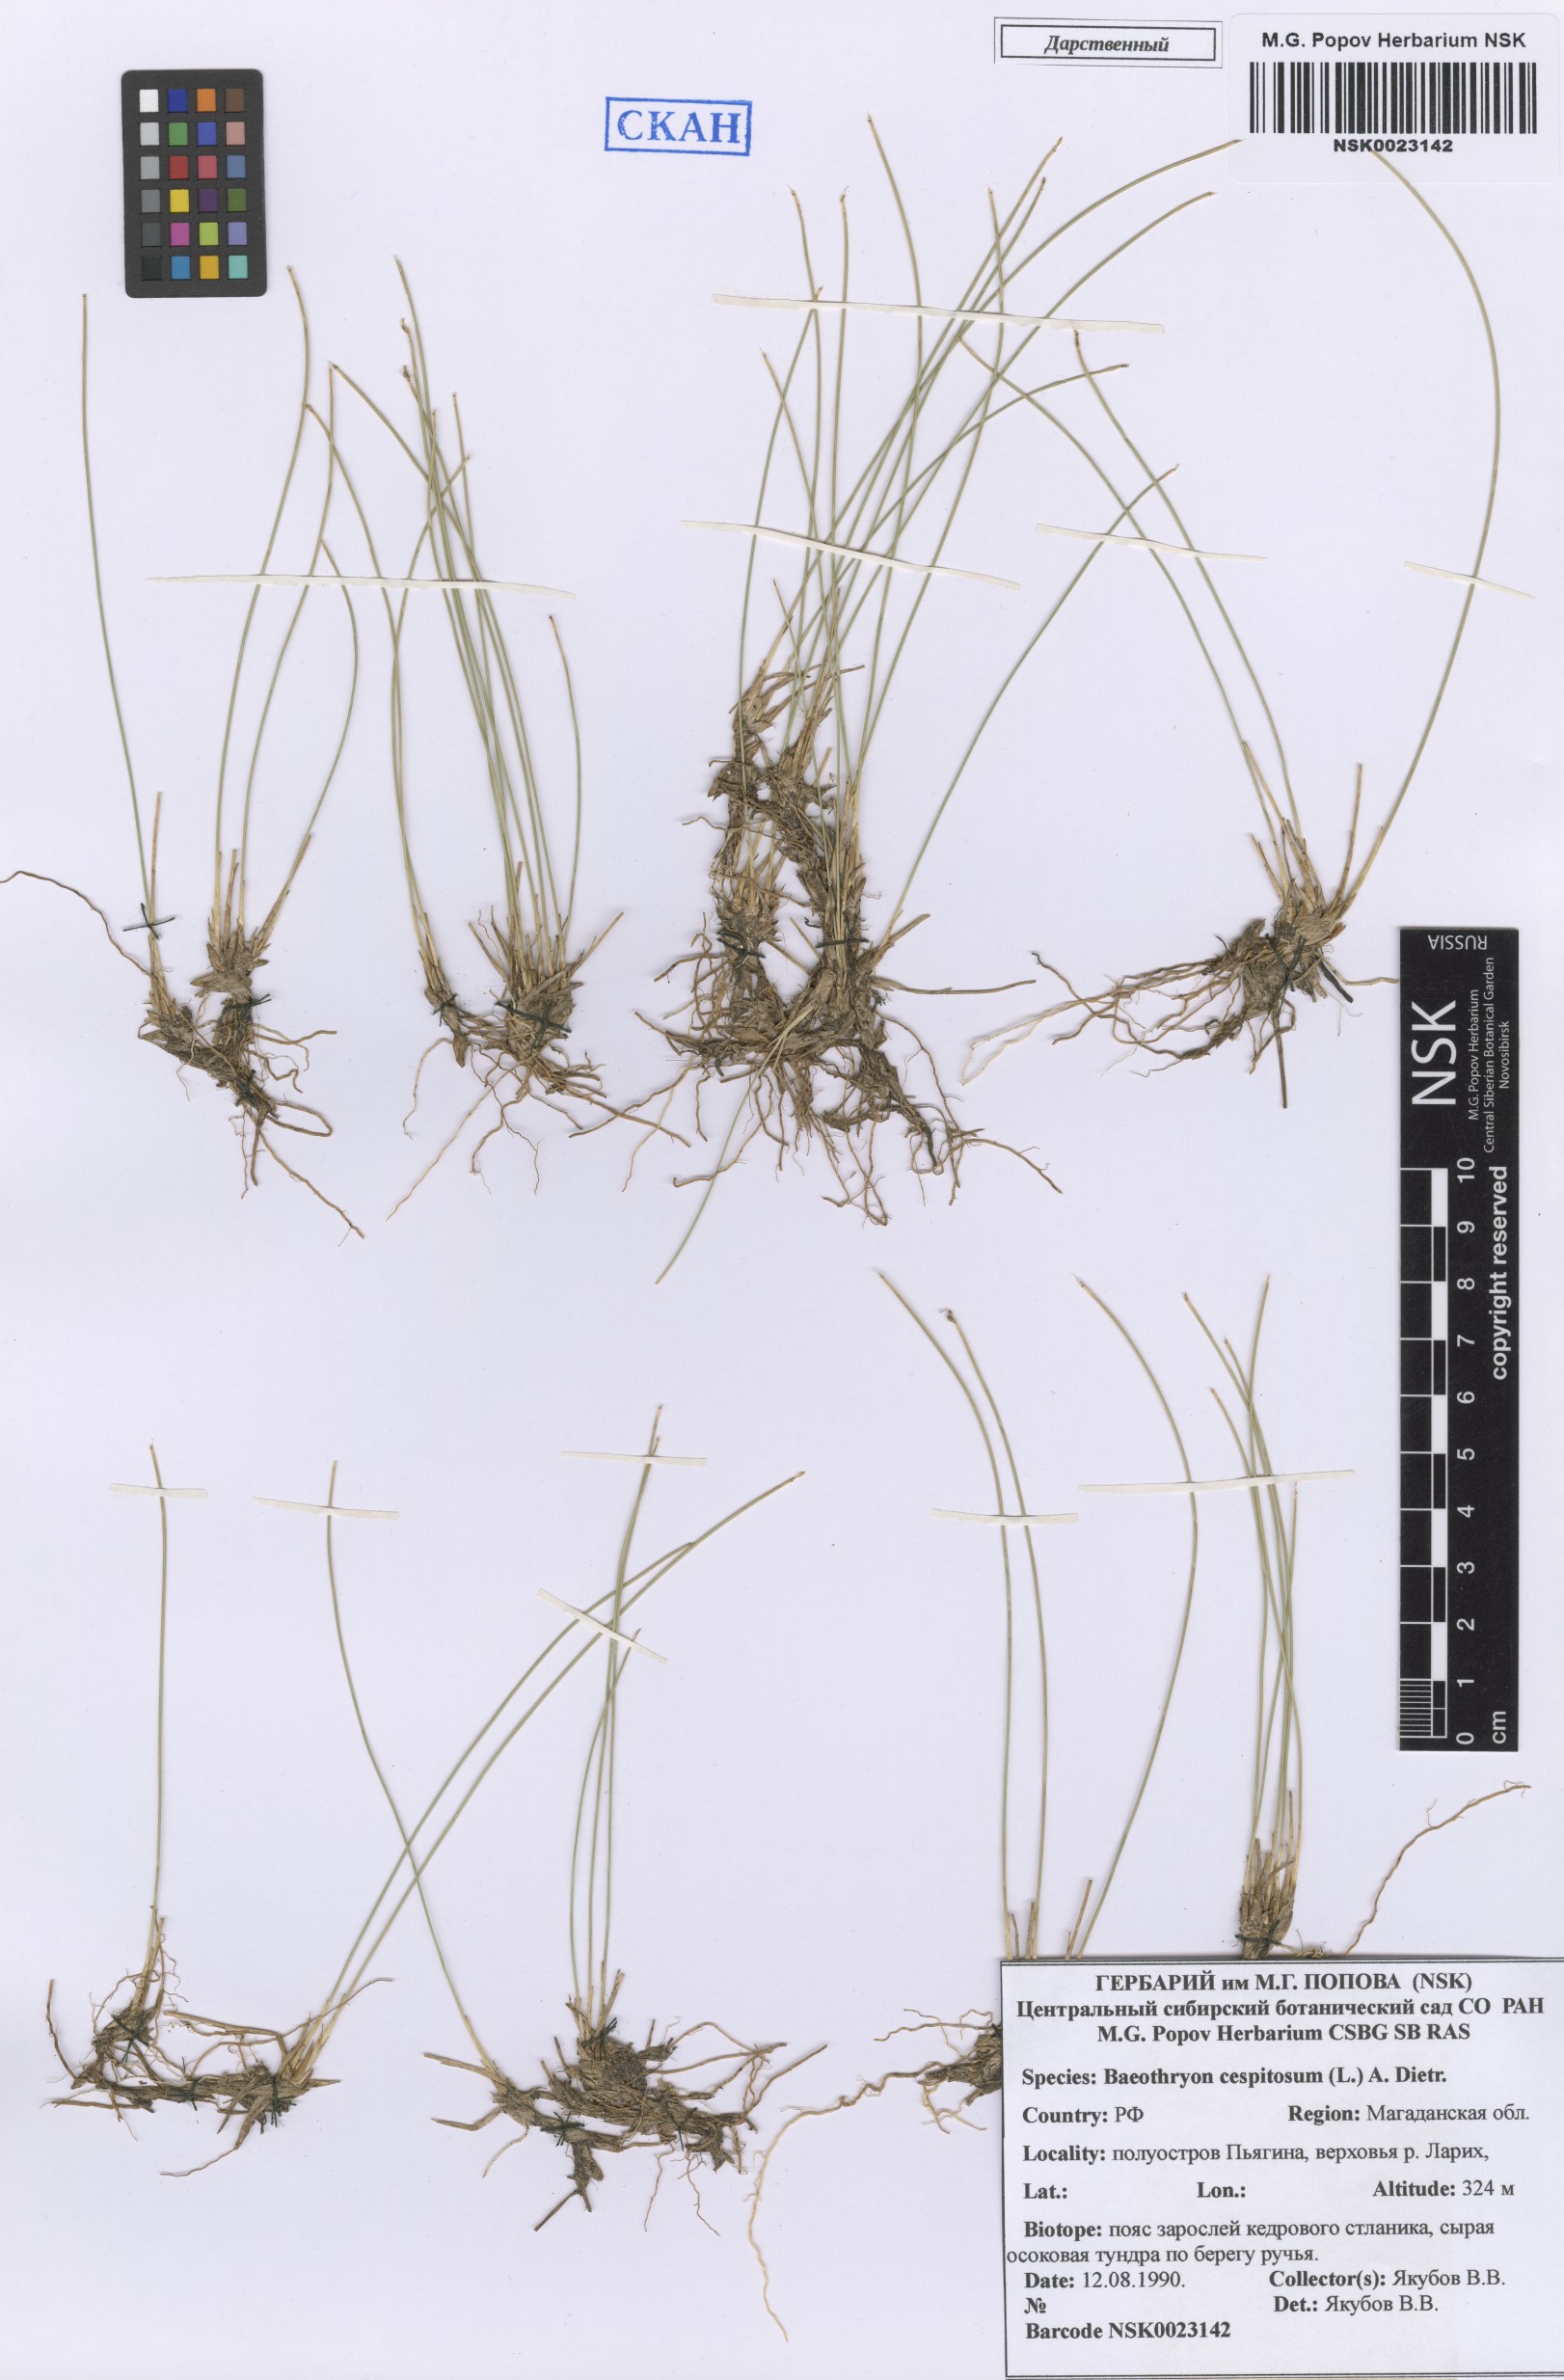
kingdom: Plantae
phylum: Tracheophyta
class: Liliopsida
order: Poales
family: Cyperaceae
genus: Trichophorum
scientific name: Trichophorum cespitosum
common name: Cespitose bulrush
